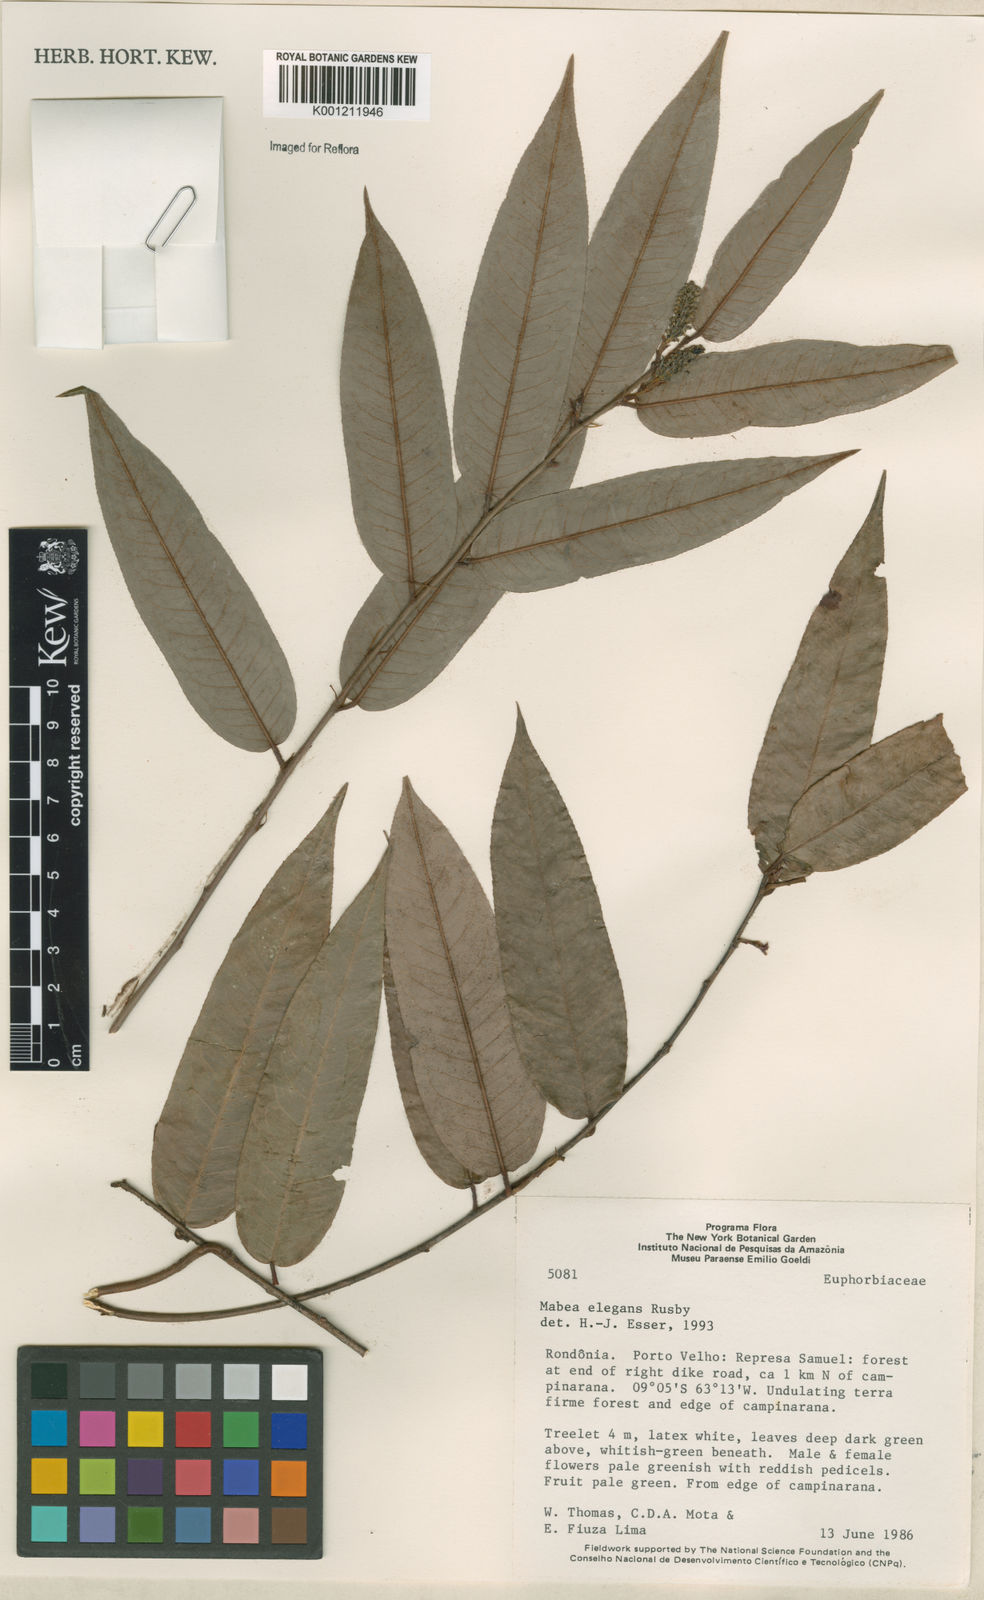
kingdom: Plantae
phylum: Tracheophyta
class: Magnoliopsida
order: Malpighiales
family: Euphorbiaceae
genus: Mabea
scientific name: Mabea elegans
